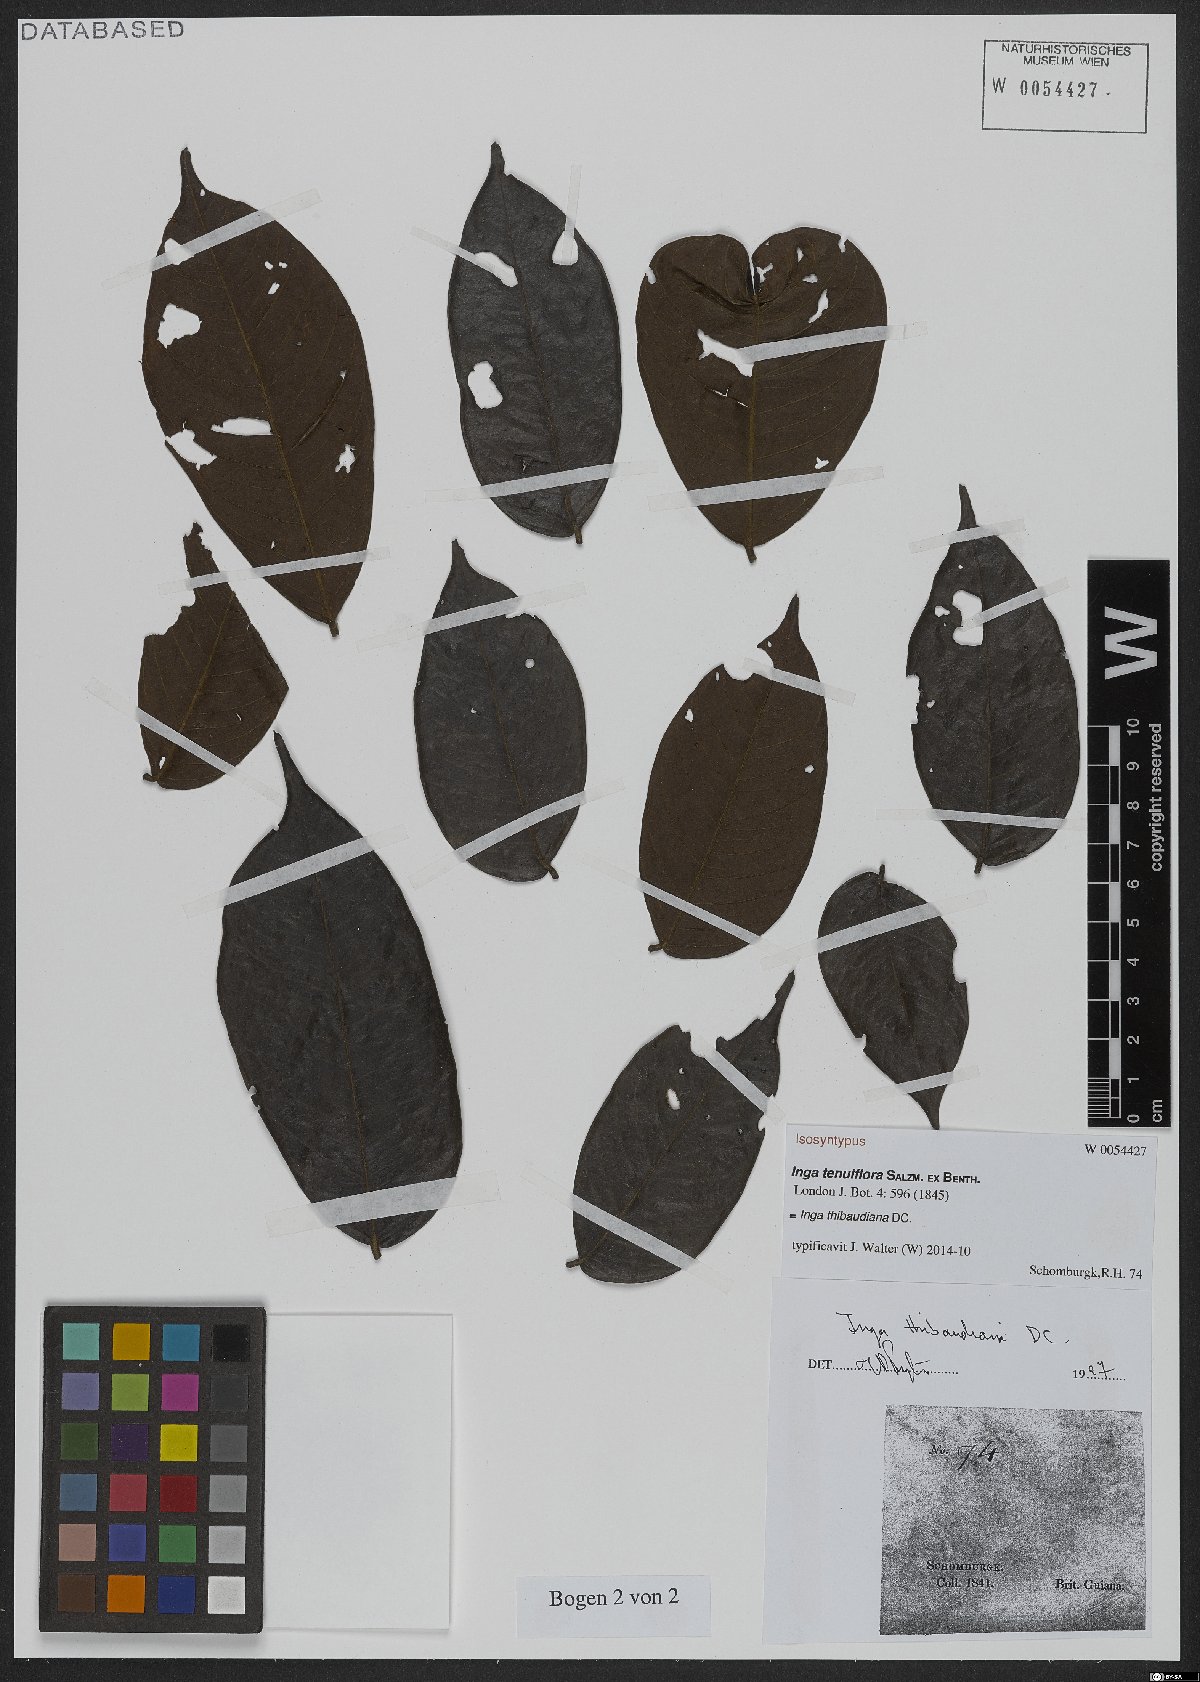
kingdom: Plantae
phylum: Tracheophyta
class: Magnoliopsida
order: Fabales
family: Fabaceae
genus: Inga
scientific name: Inga thibaudiana
